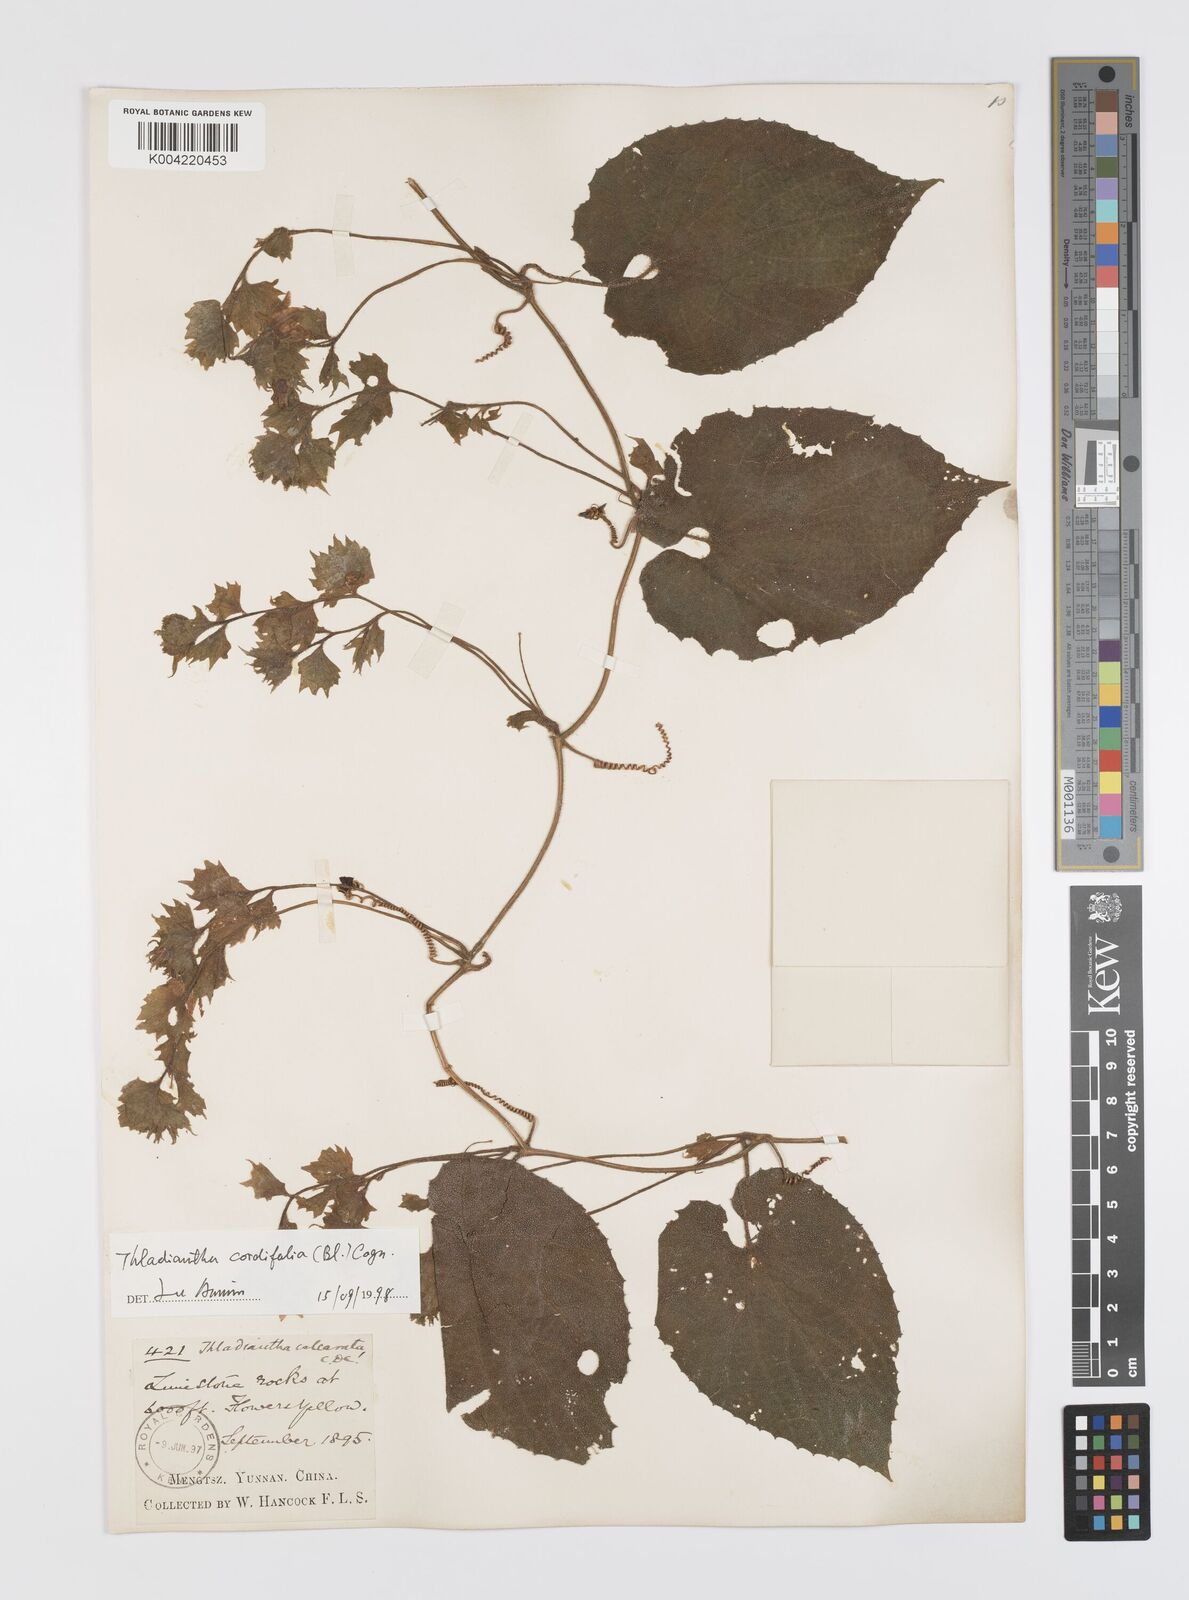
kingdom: Plantae
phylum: Tracheophyta
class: Magnoliopsida
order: Cucurbitales
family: Cucurbitaceae
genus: Thladiantha
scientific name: Thladiantha cordifolia
